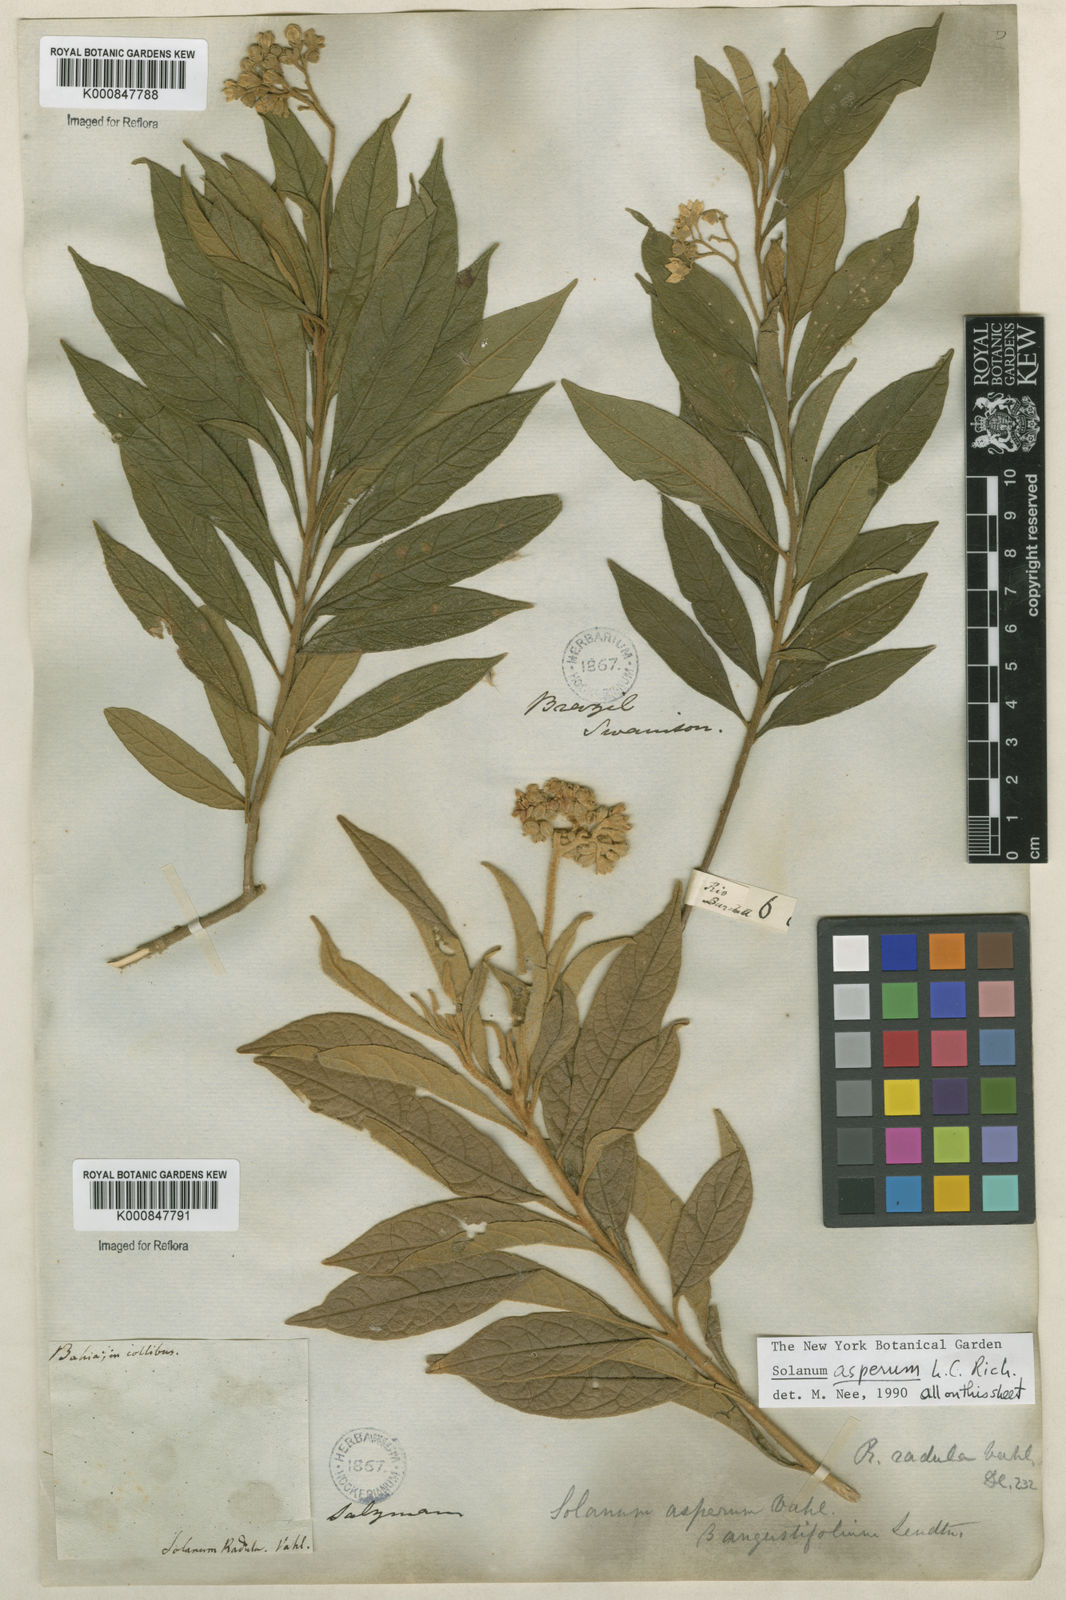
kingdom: Plantae
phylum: Tracheophyta
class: Magnoliopsida
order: Solanales
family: Solanaceae
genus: Solanum
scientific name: Solanum asperum
